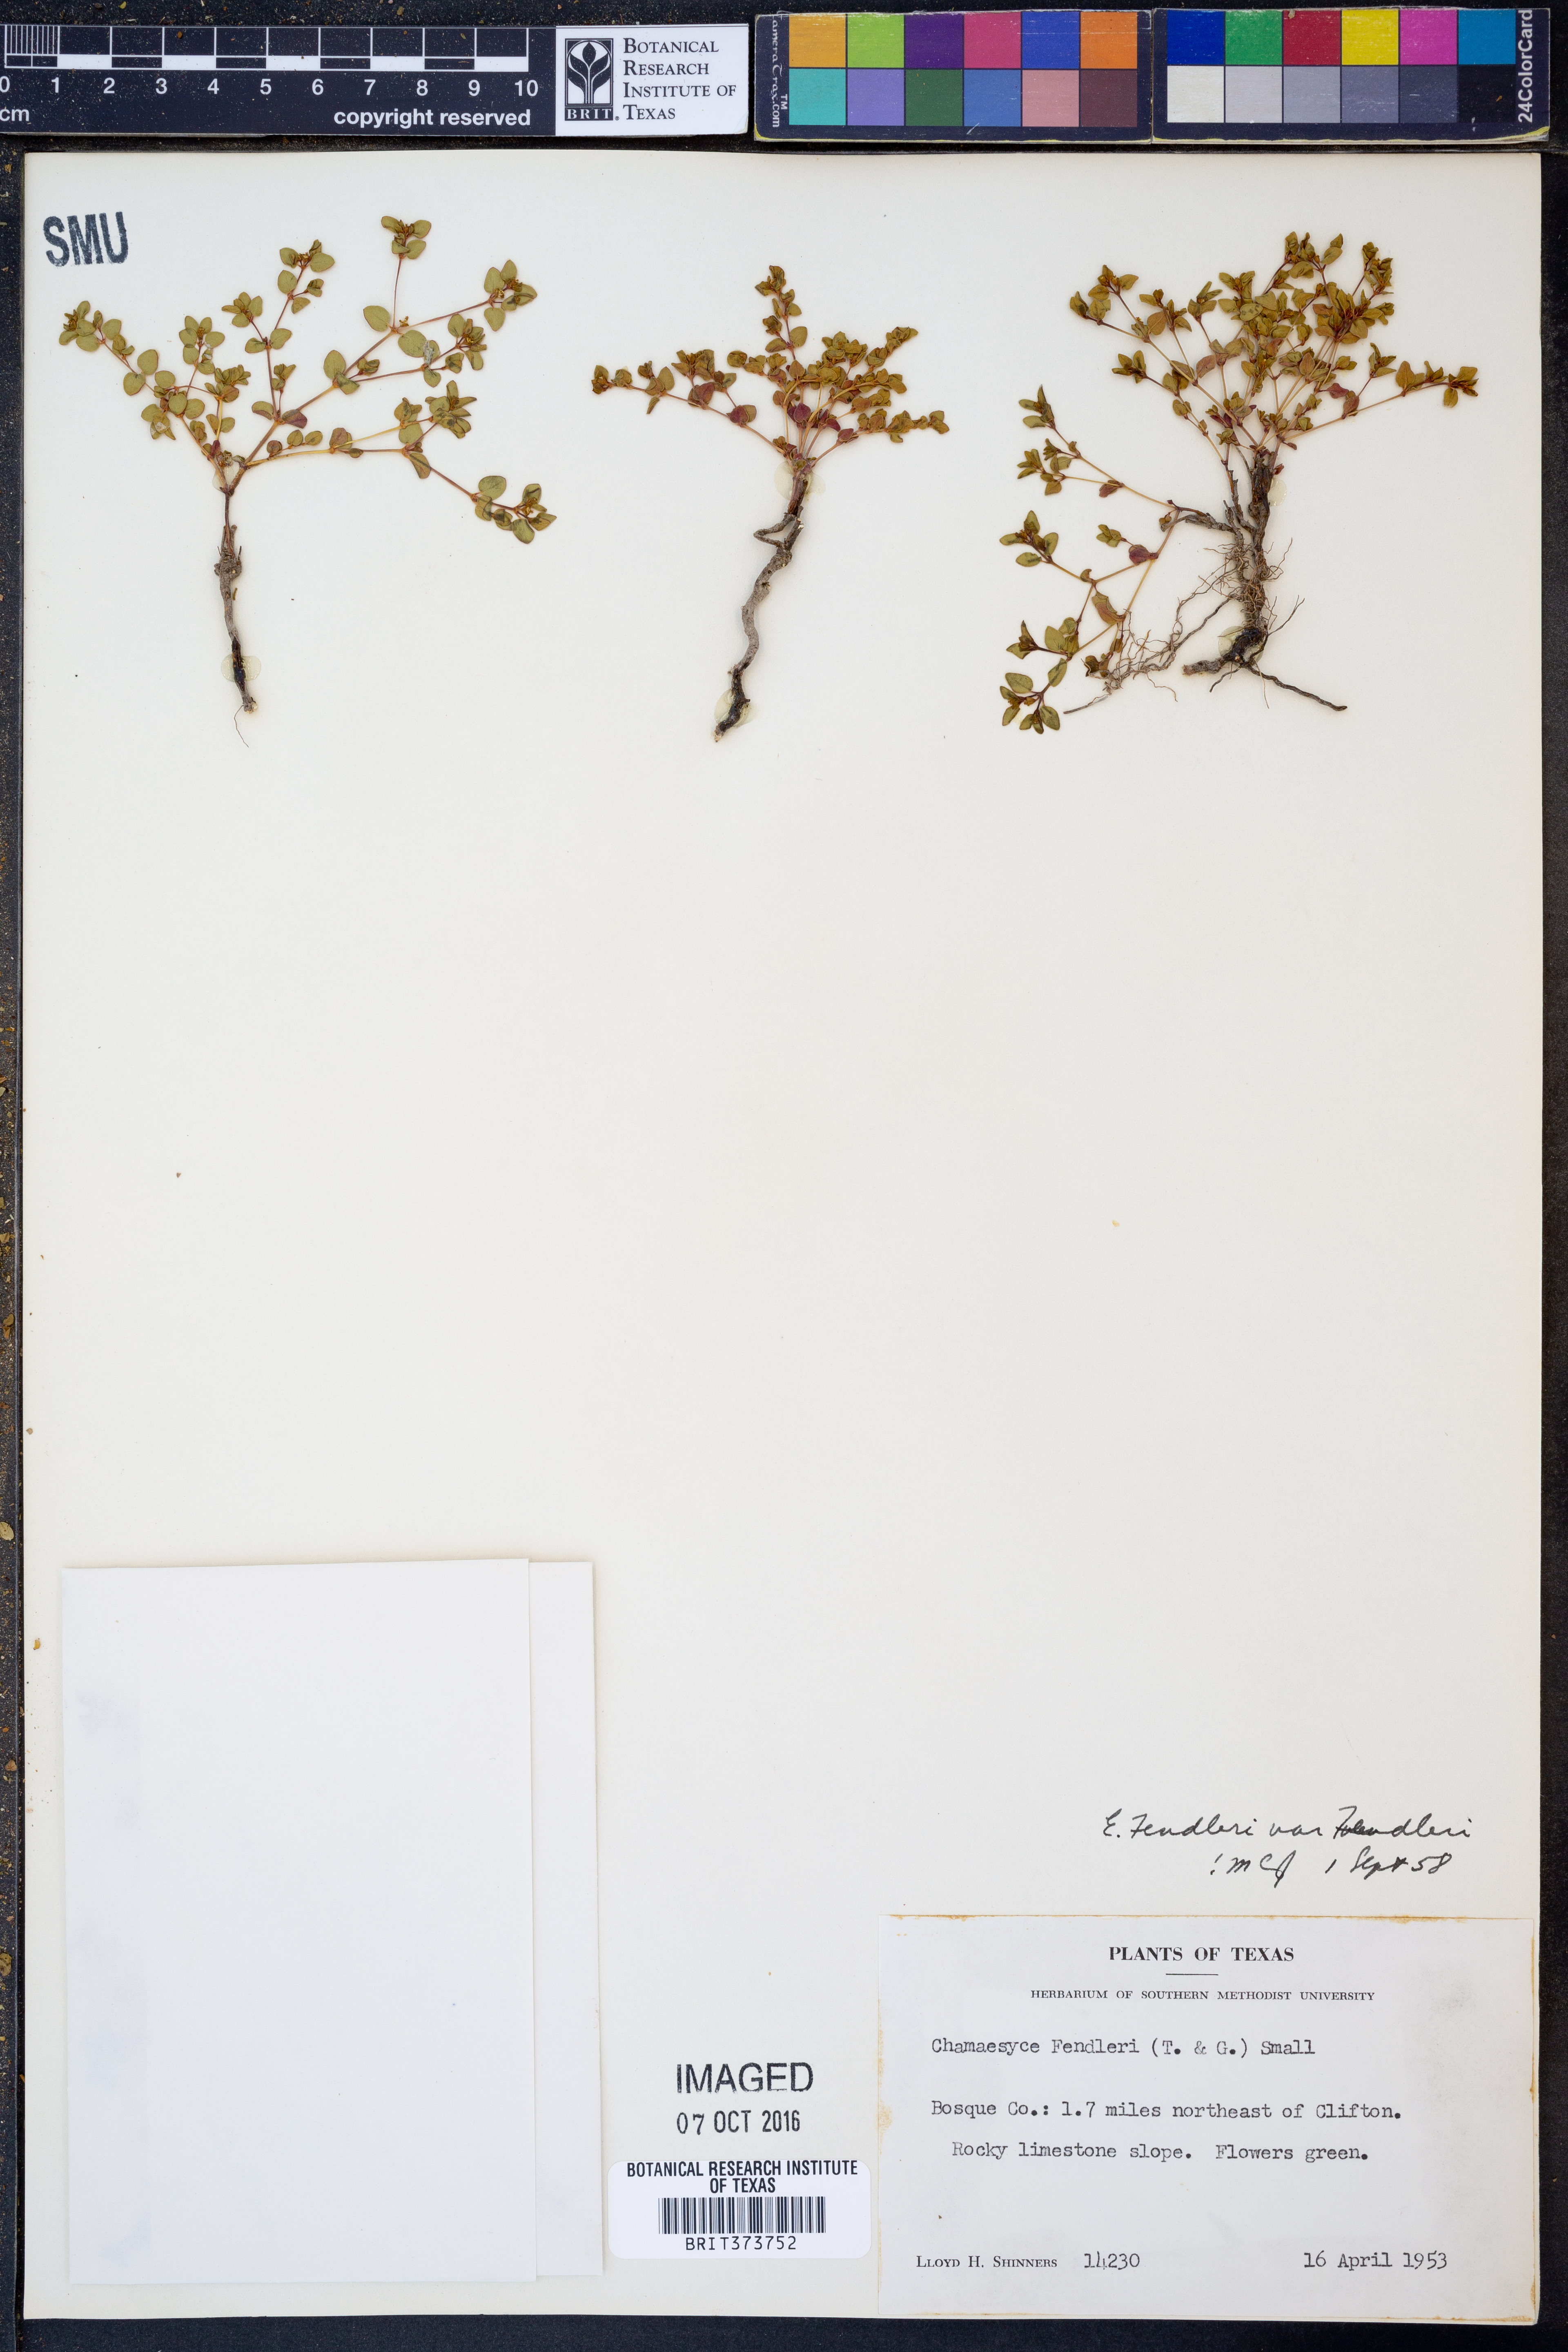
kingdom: Plantae
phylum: Tracheophyta
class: Magnoliopsida
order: Malpighiales
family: Euphorbiaceae
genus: Euphorbia
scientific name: Euphorbia fendleri
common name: Fendler's euphorbia
